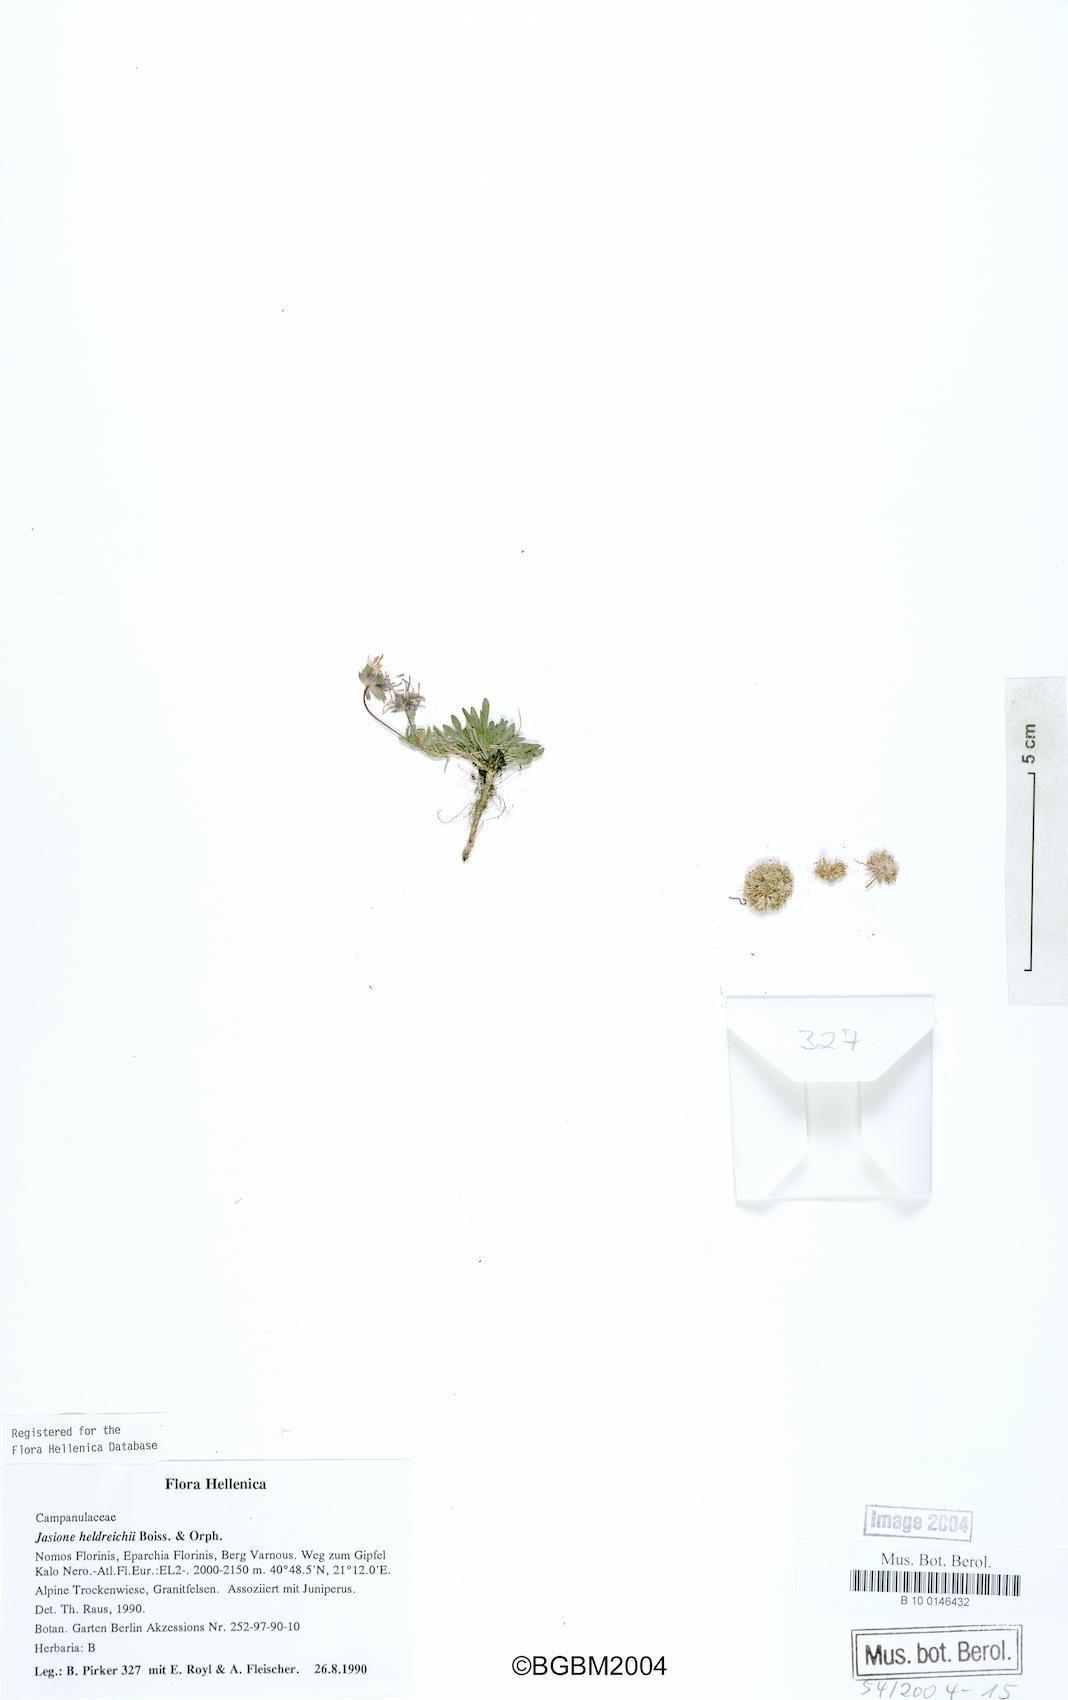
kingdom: Plantae
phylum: Tracheophyta
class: Magnoliopsida
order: Asterales
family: Campanulaceae
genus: Jasione
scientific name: Jasione heldreichii
